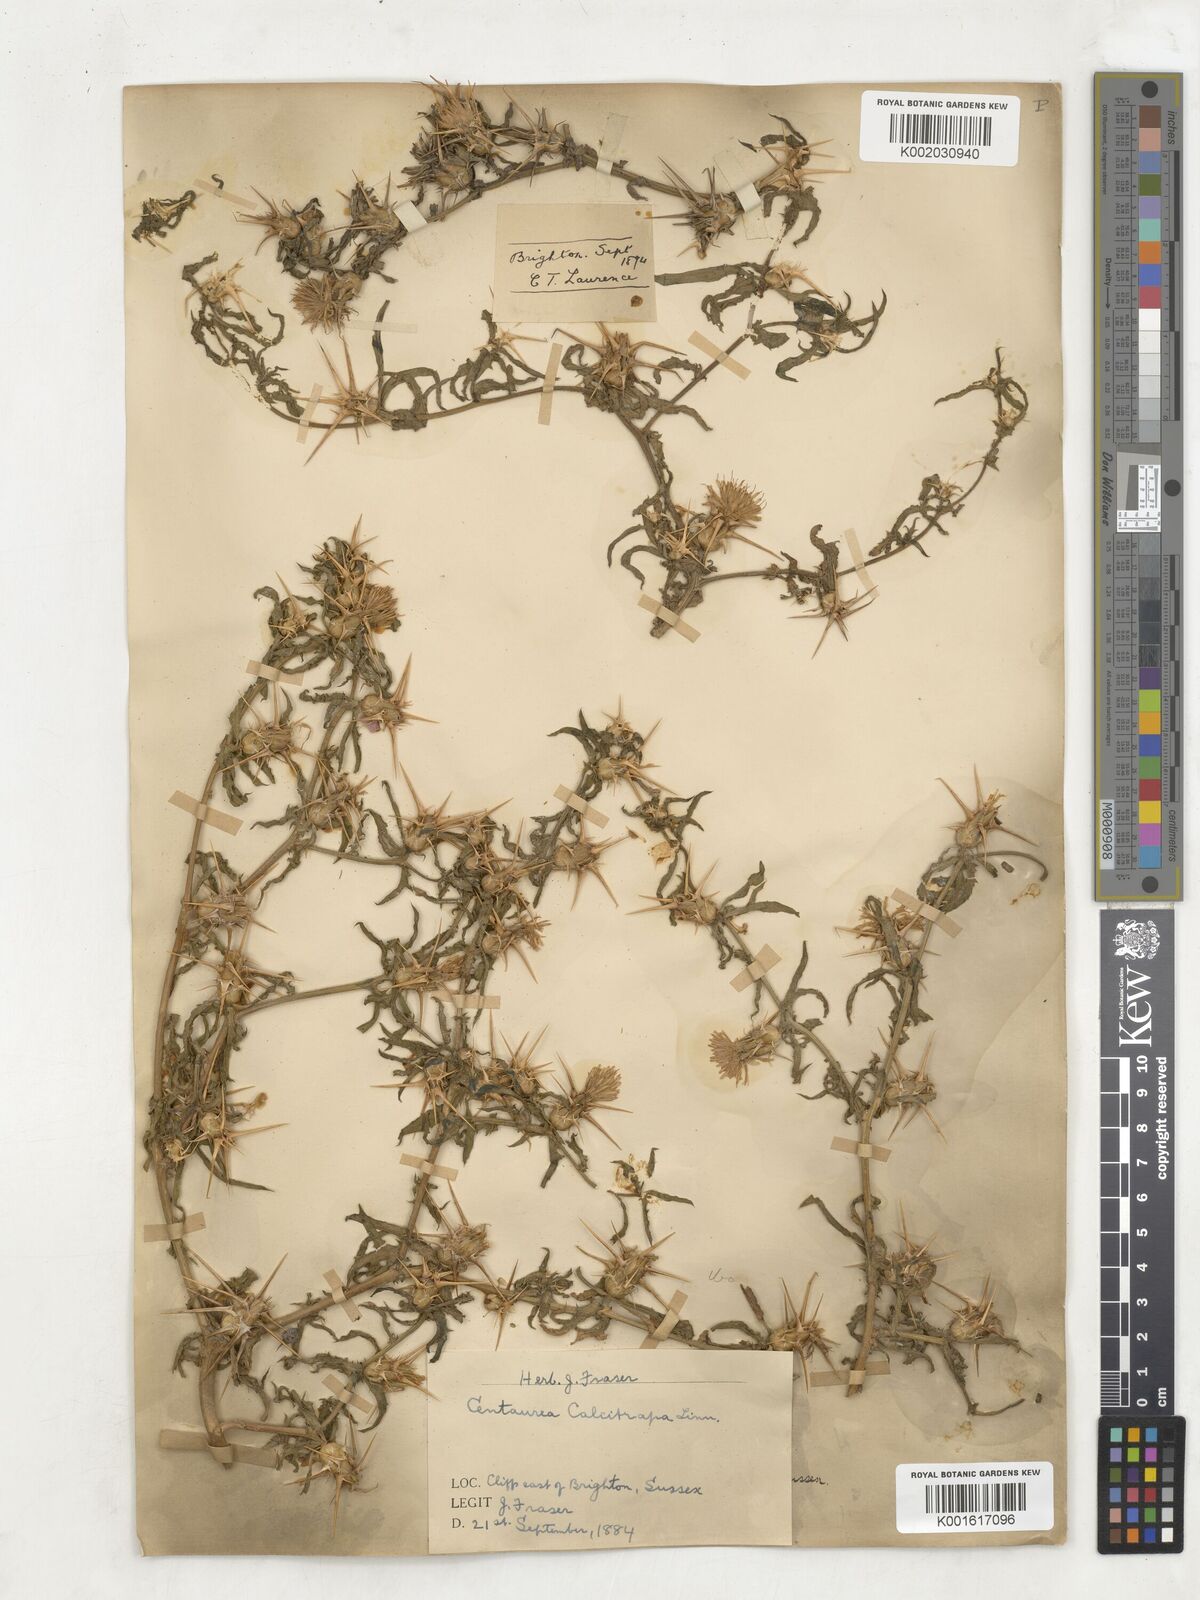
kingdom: Plantae
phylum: Tracheophyta
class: Magnoliopsida
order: Asterales
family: Asteraceae
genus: Centaurea
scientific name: Centaurea calcitrapa
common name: Red star-thistle
